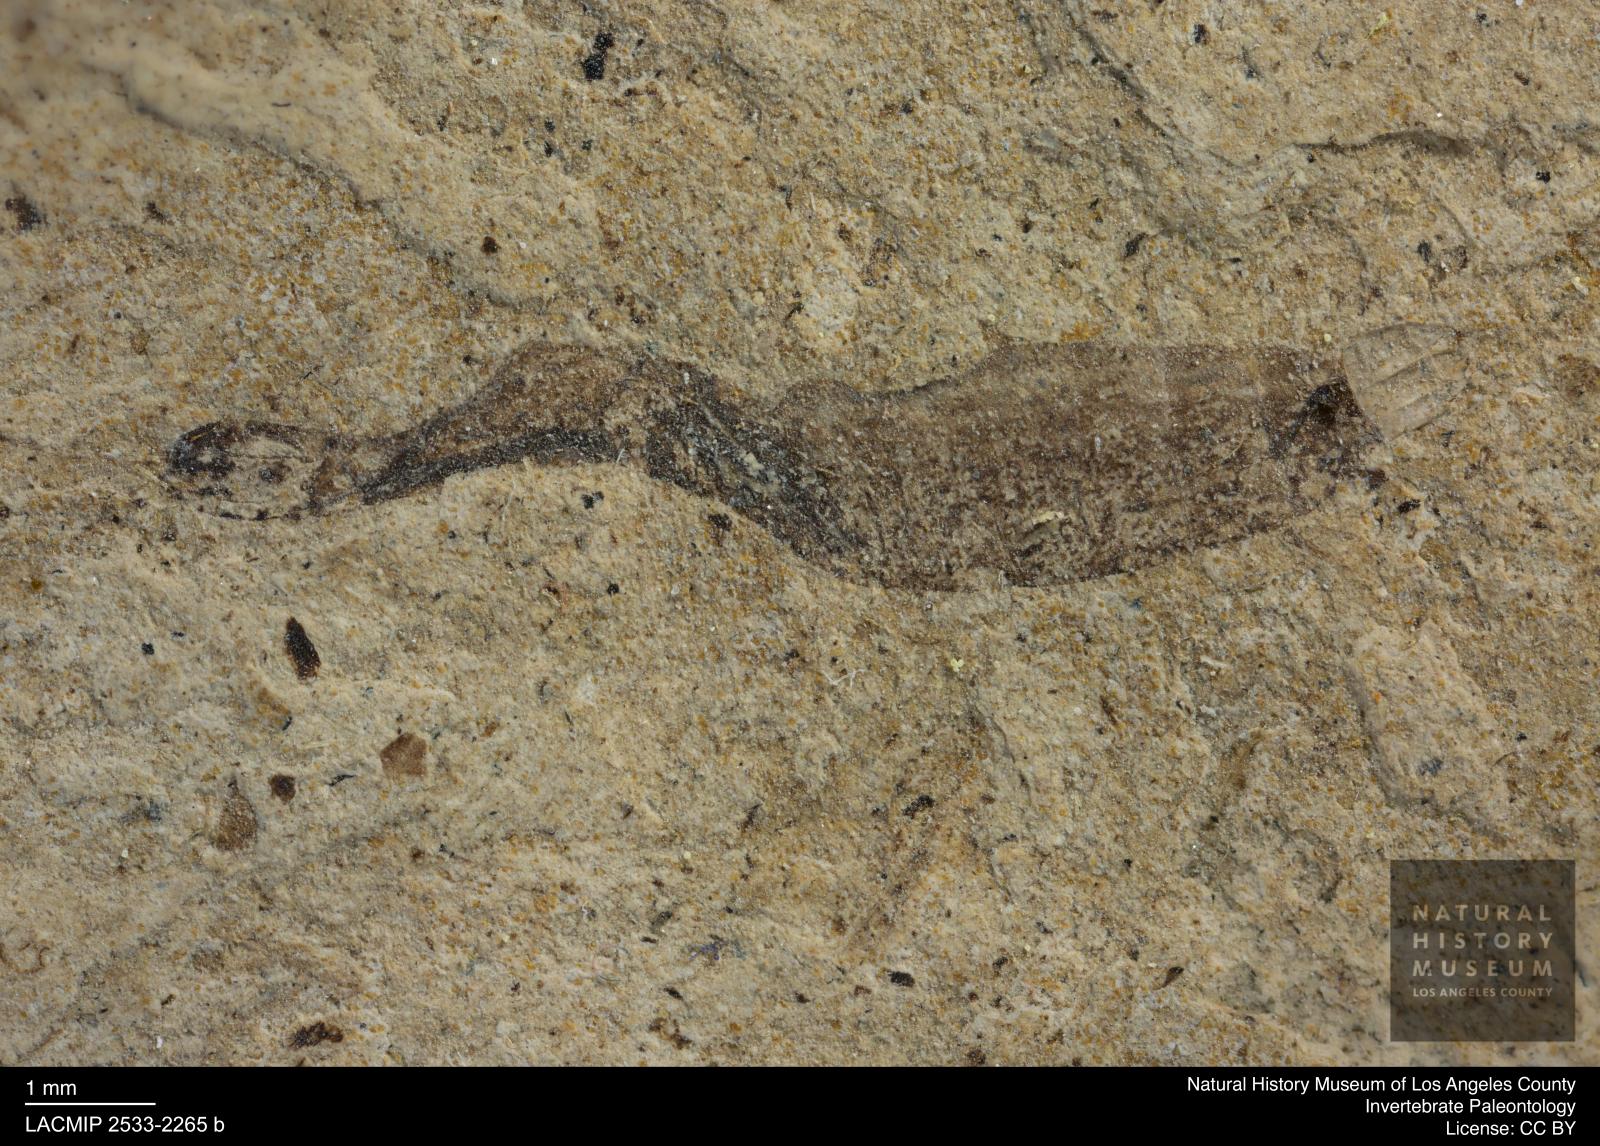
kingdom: Animalia
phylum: Arthropoda
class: Insecta
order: Diptera
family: Stratiomyidae
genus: Odontomyia
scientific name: Odontomyia
